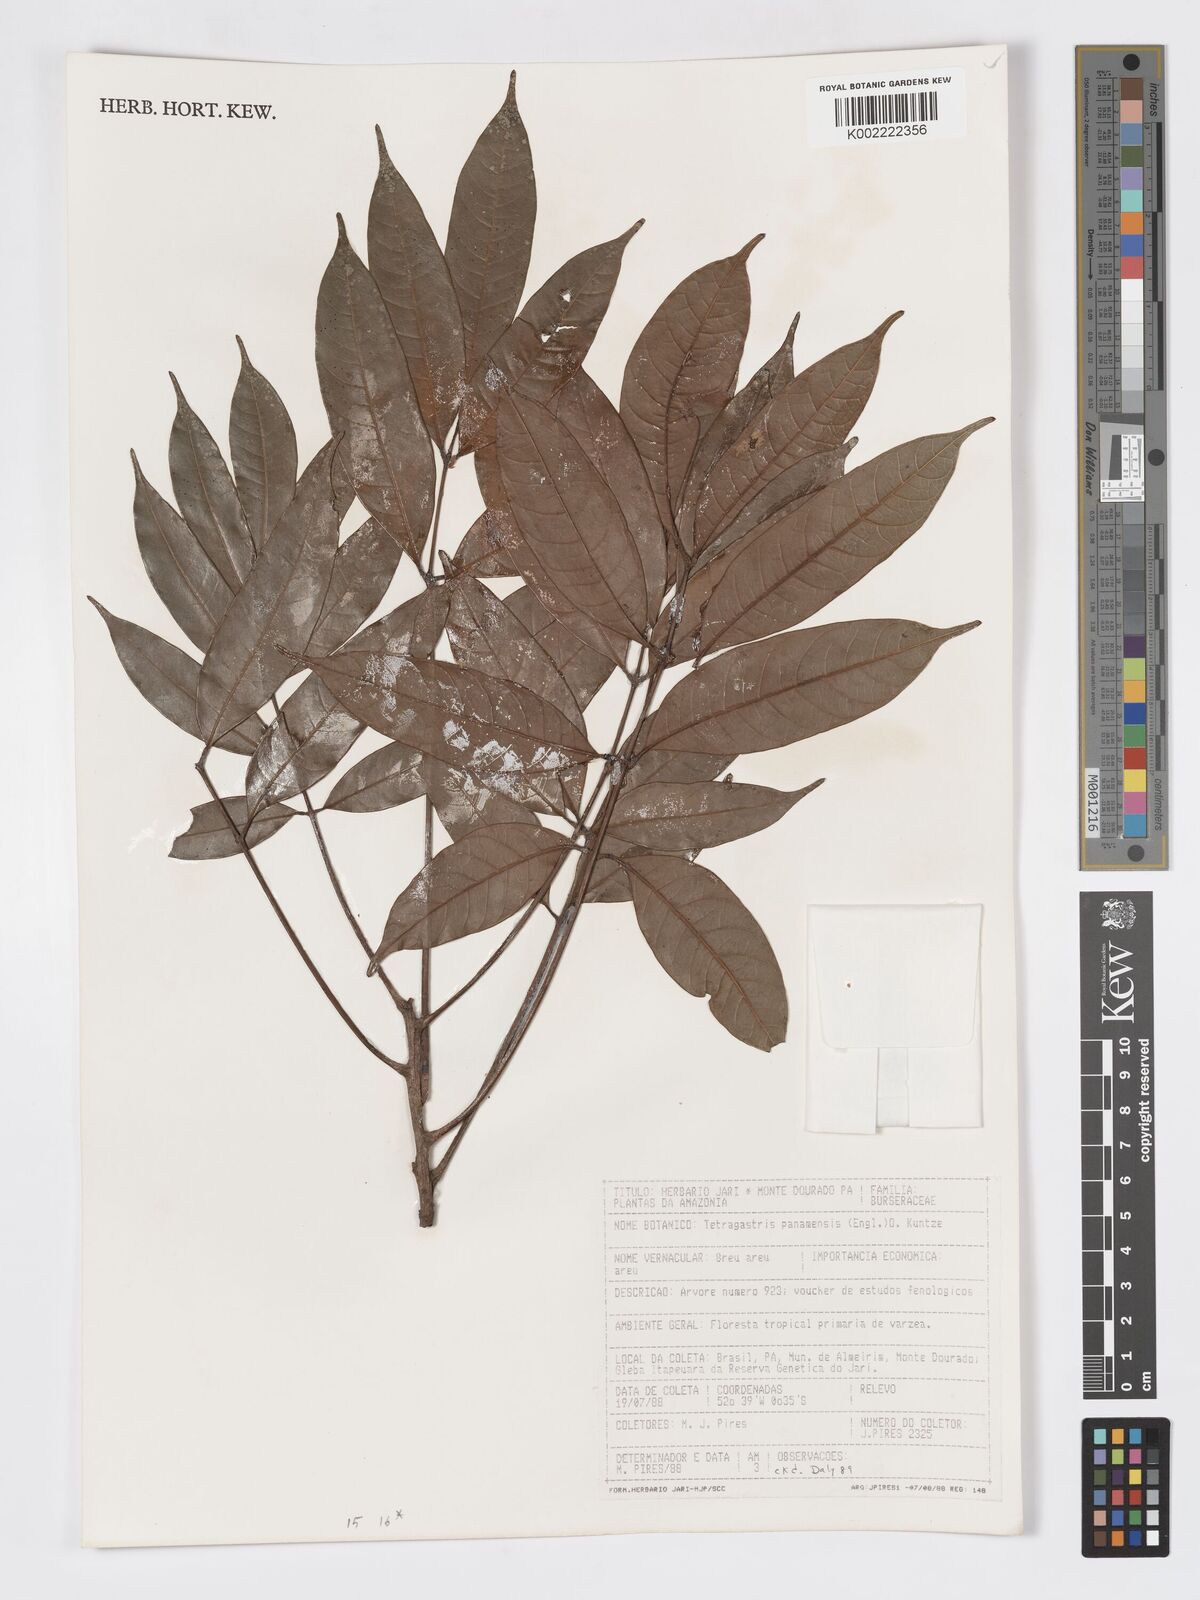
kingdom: Plantae
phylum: Tracheophyta
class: Magnoliopsida
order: Sapindales
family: Burseraceae
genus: Tetragastris
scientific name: Tetragastris panamensis
